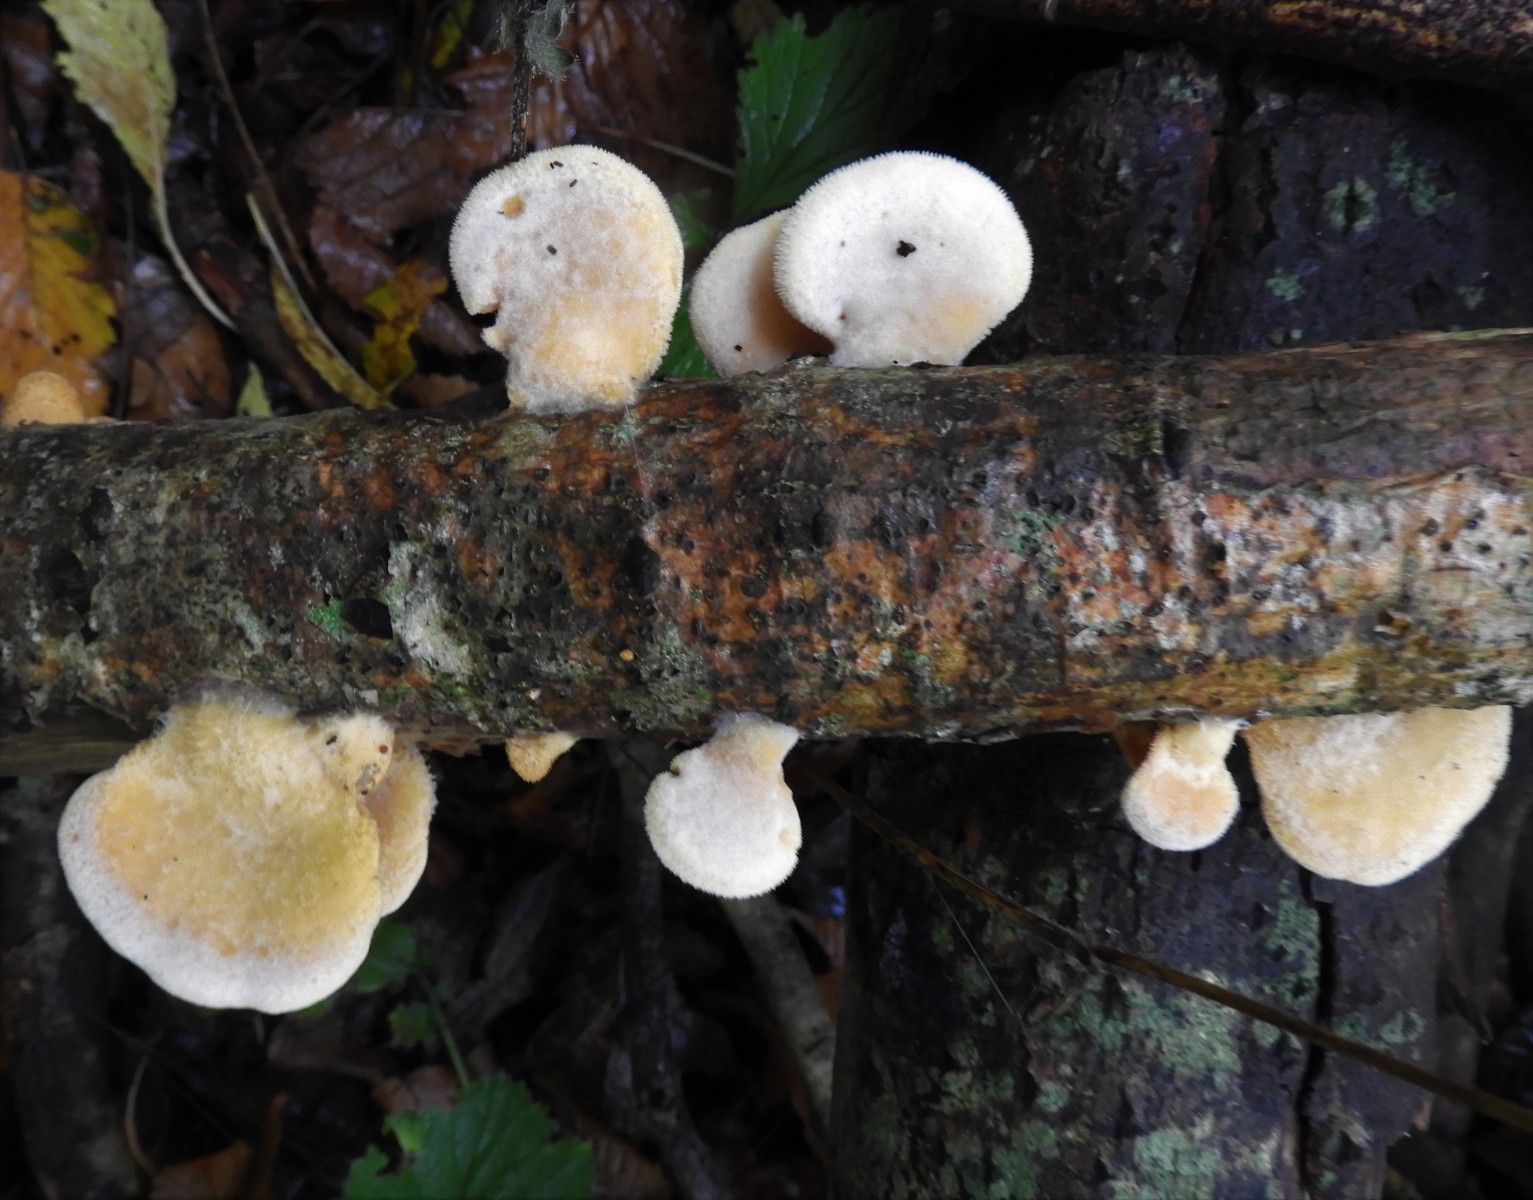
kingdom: Fungi
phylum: Basidiomycota
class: Agaricomycetes
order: Agaricales
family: Phyllotopsidaceae
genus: Phyllotopsis
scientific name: Phyllotopsis nidulans
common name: okkerblad
